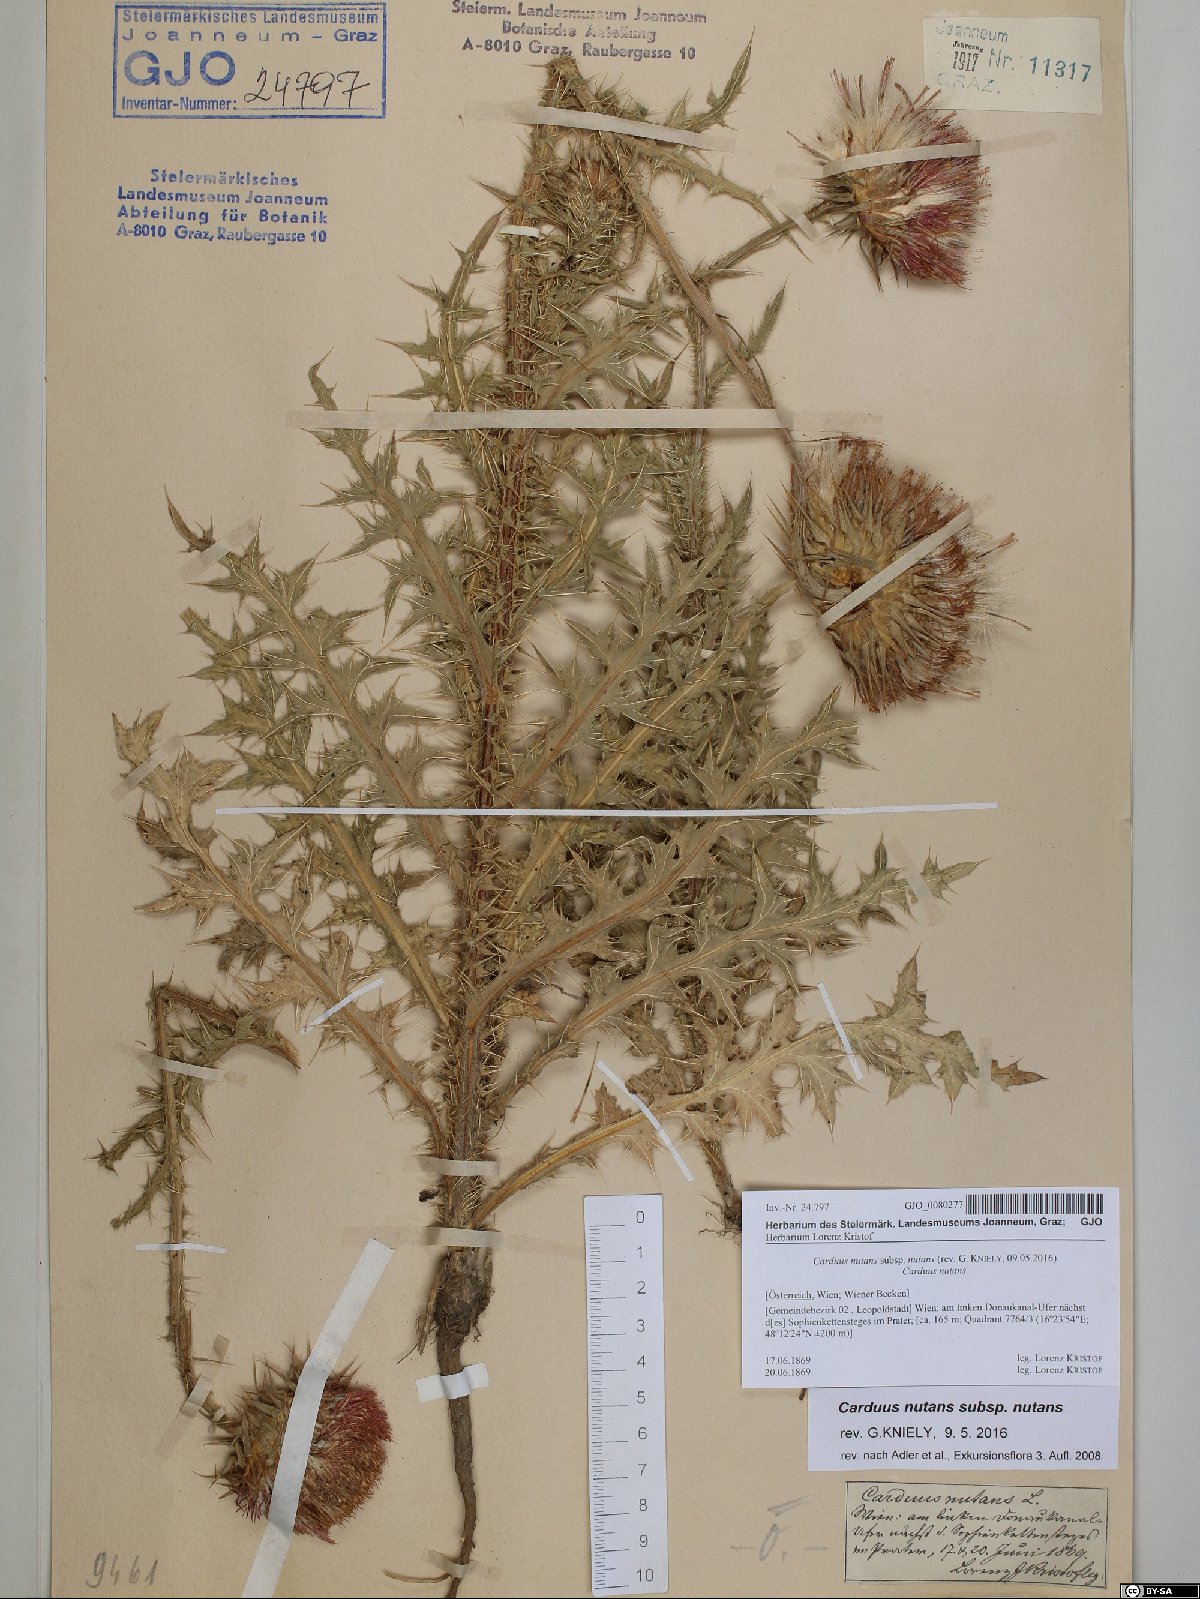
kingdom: Plantae
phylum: Tracheophyta
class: Magnoliopsida
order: Asterales
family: Asteraceae
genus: Carduus
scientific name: Carduus nutans
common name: Musk thistle
